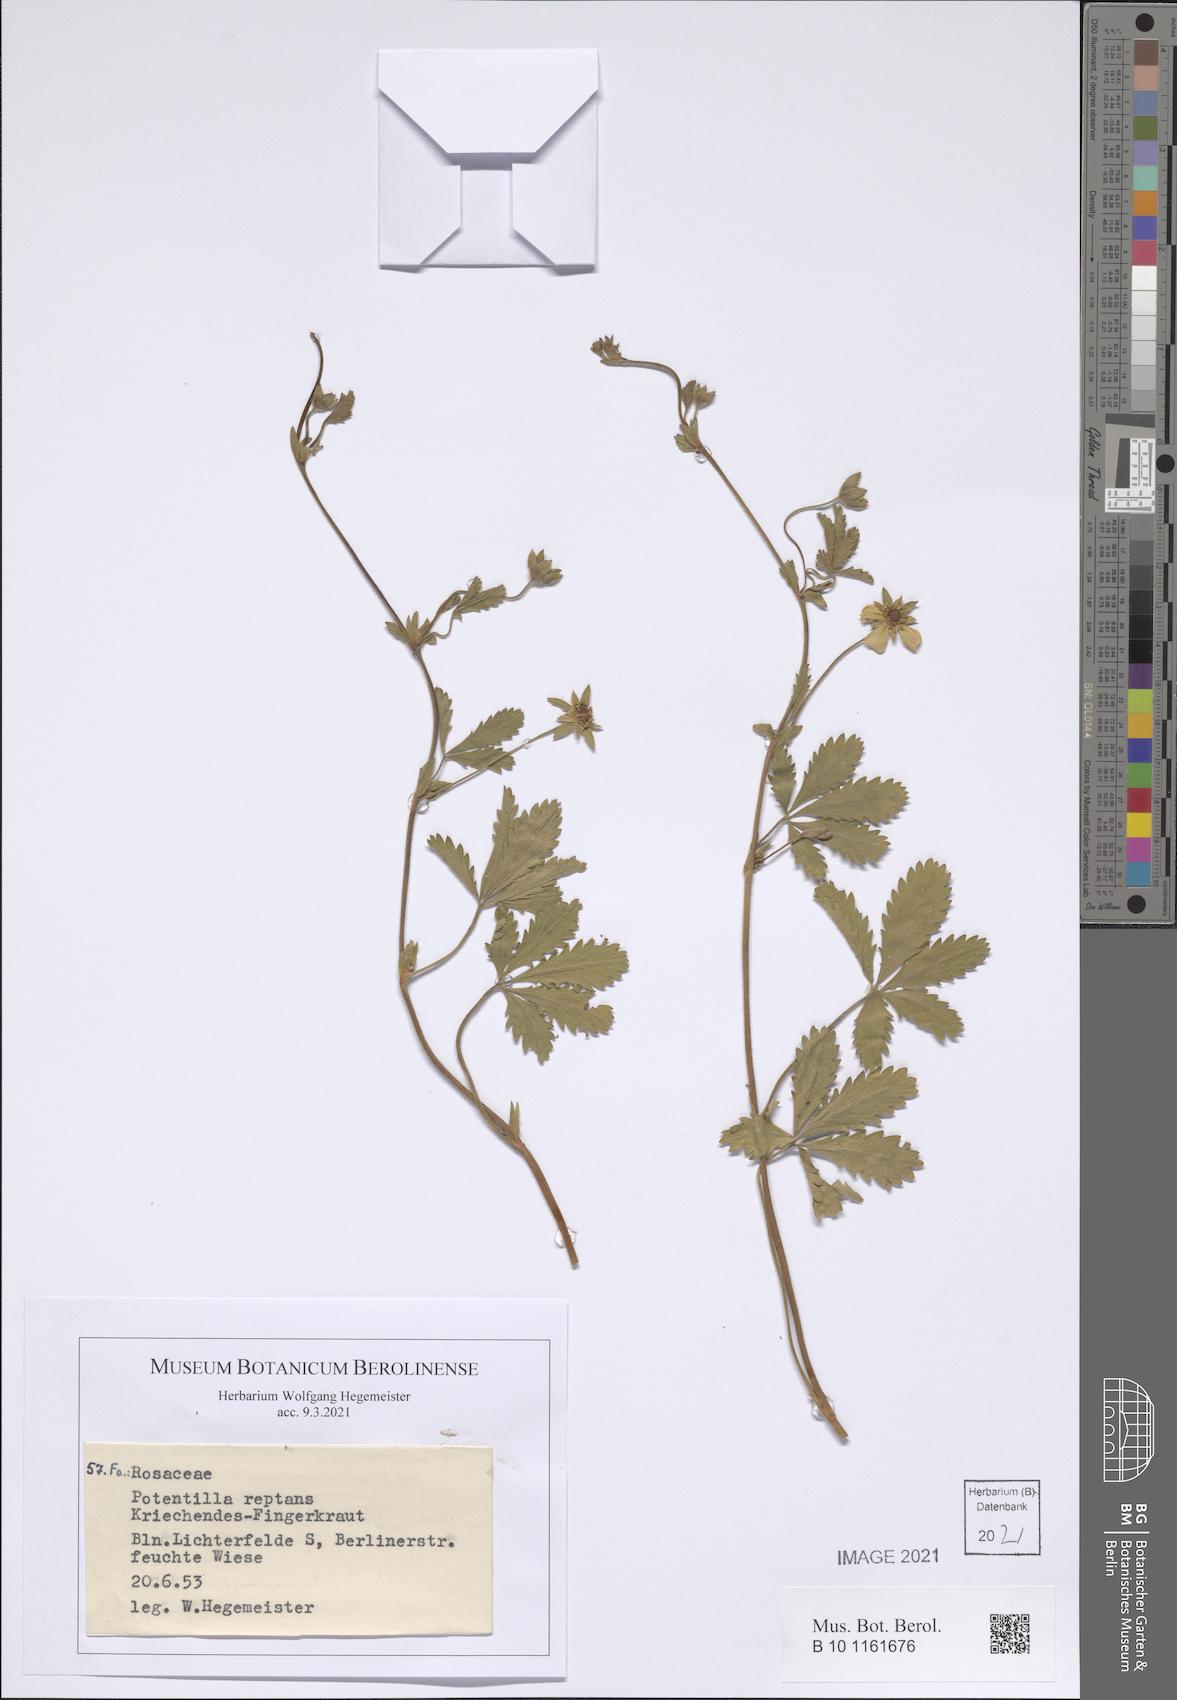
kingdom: Plantae
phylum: Tracheophyta
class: Magnoliopsida
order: Rosales
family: Rosaceae
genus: Potentilla
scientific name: Potentilla reptans
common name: Creeping cinquefoil
